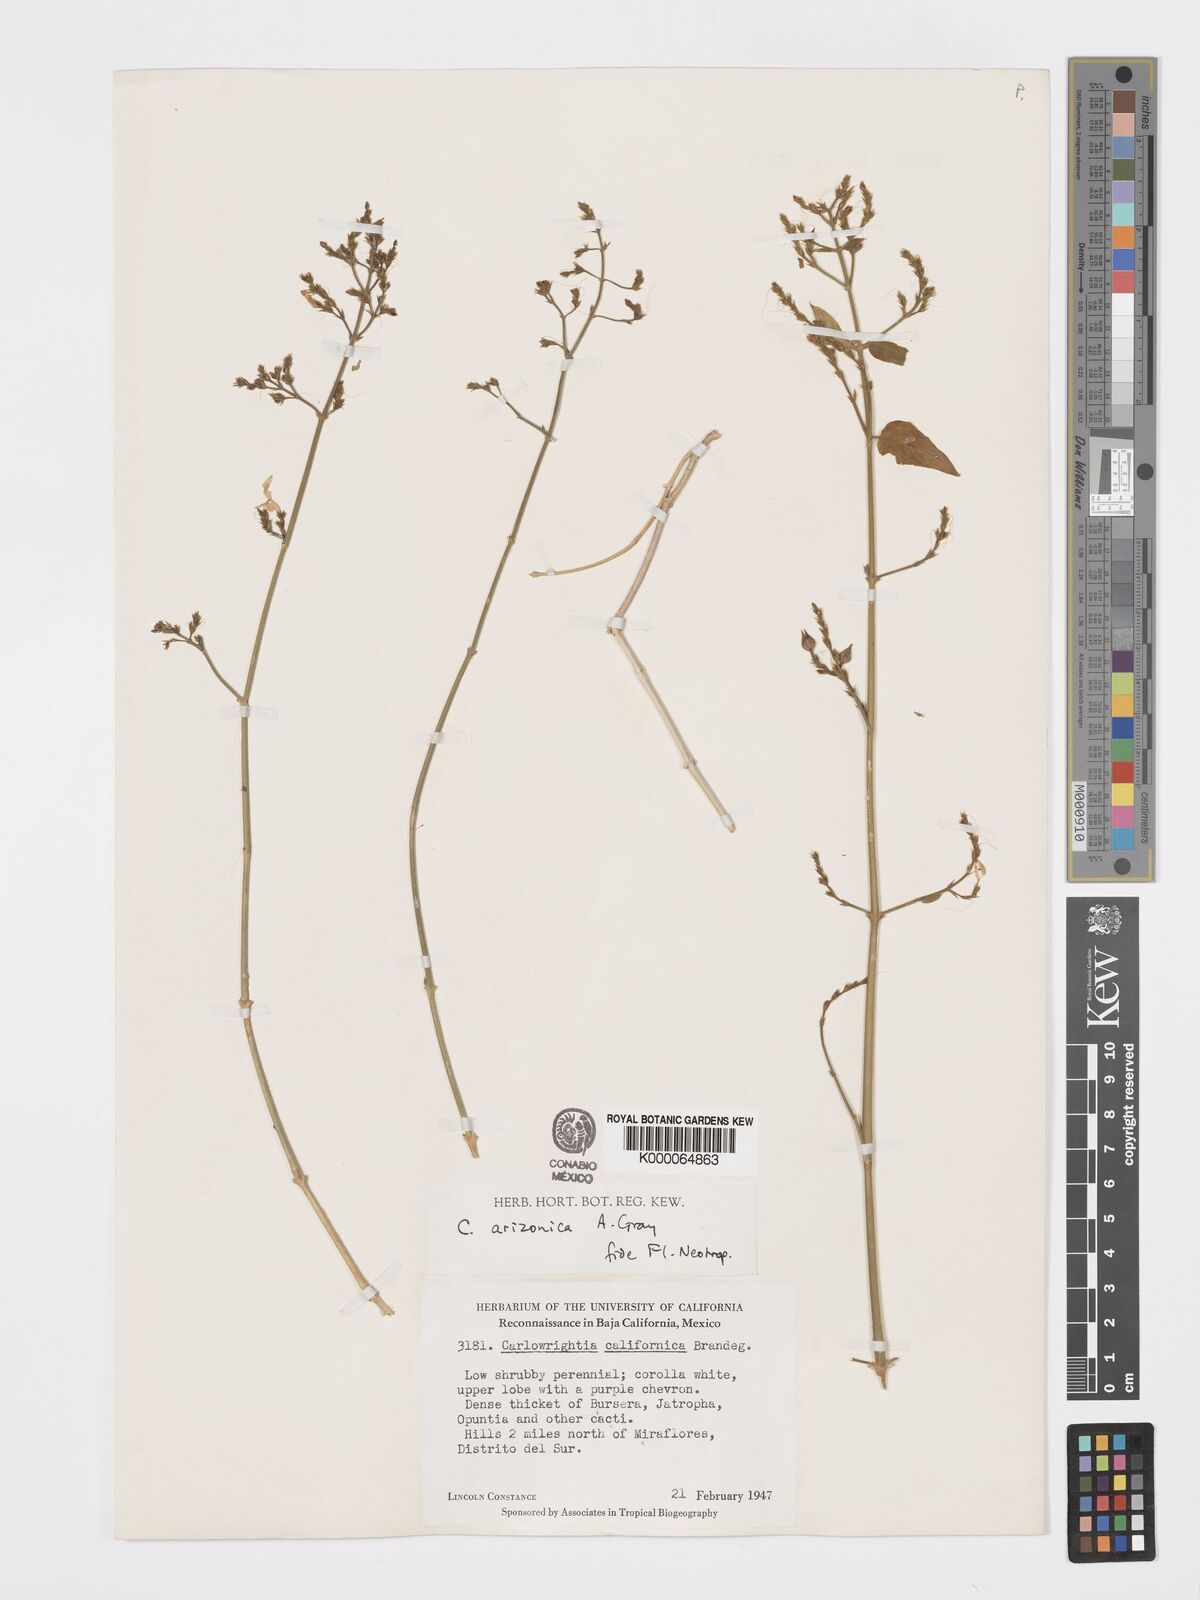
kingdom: Plantae
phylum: Tracheophyta
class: Magnoliopsida
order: Lamiales
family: Acanthaceae
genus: Carlowrightia
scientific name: Carlowrightia arizonica
